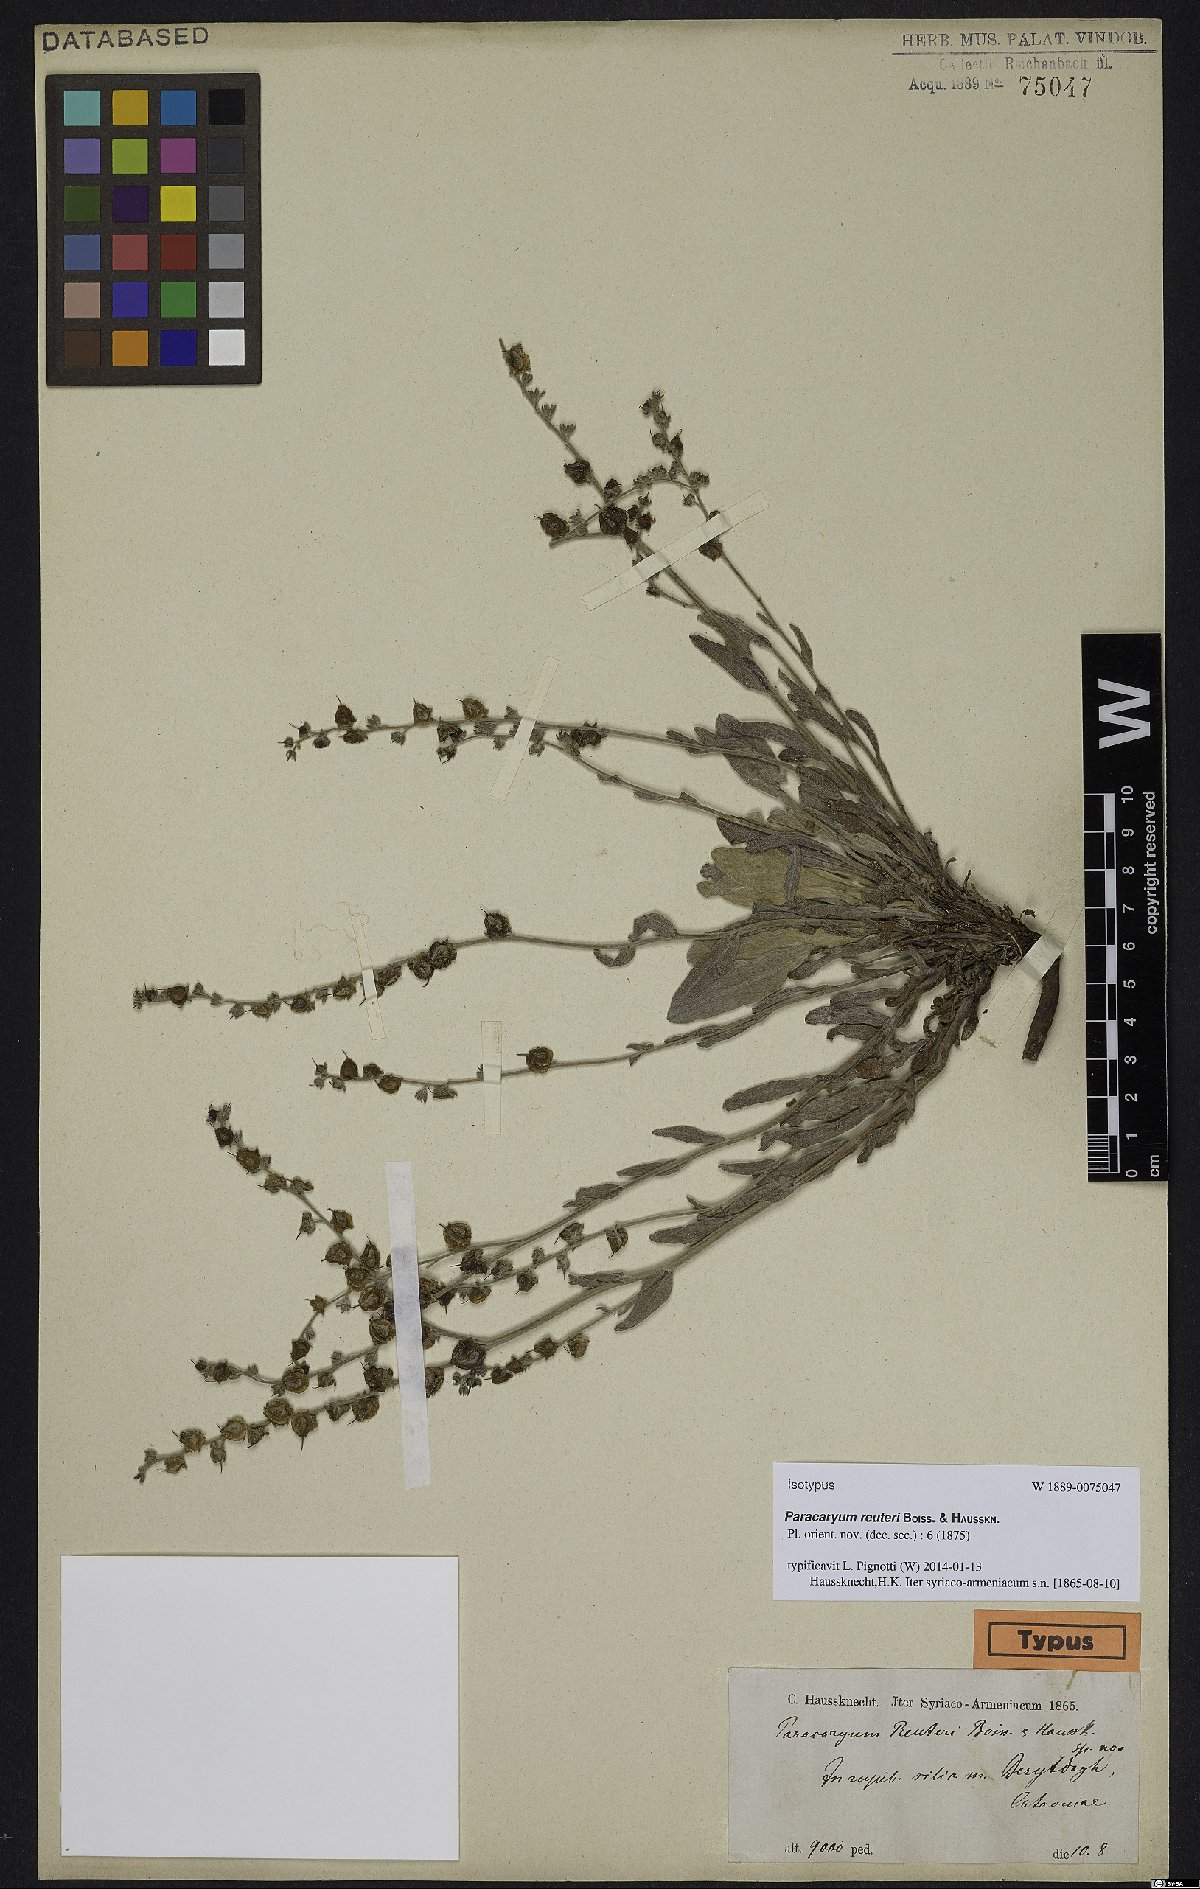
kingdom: Plantae
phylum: Tracheophyta
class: Magnoliopsida
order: Boraginales
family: Boraginaceae
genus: Paracaryum
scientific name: Paracaryum reuteri
